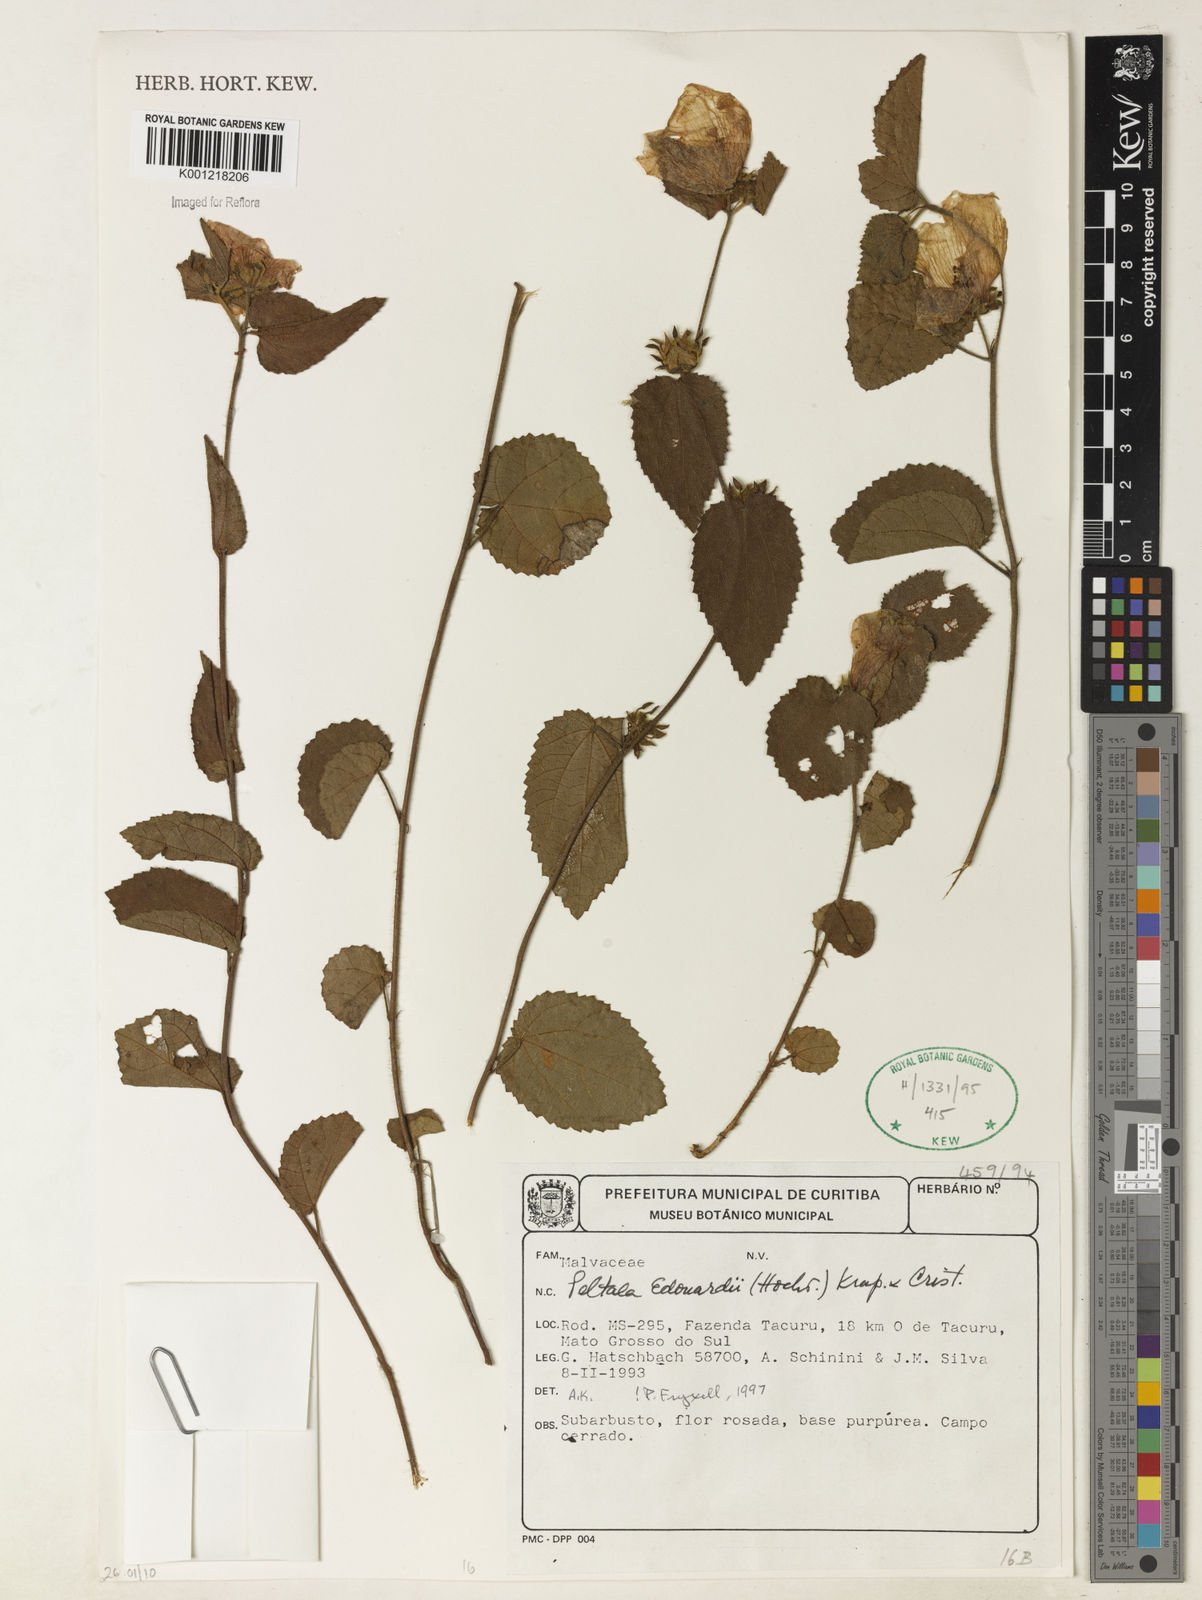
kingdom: Plantae
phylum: Tracheophyta
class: Magnoliopsida
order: Malvales
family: Malvaceae
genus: Peltaea
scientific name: Peltaea
